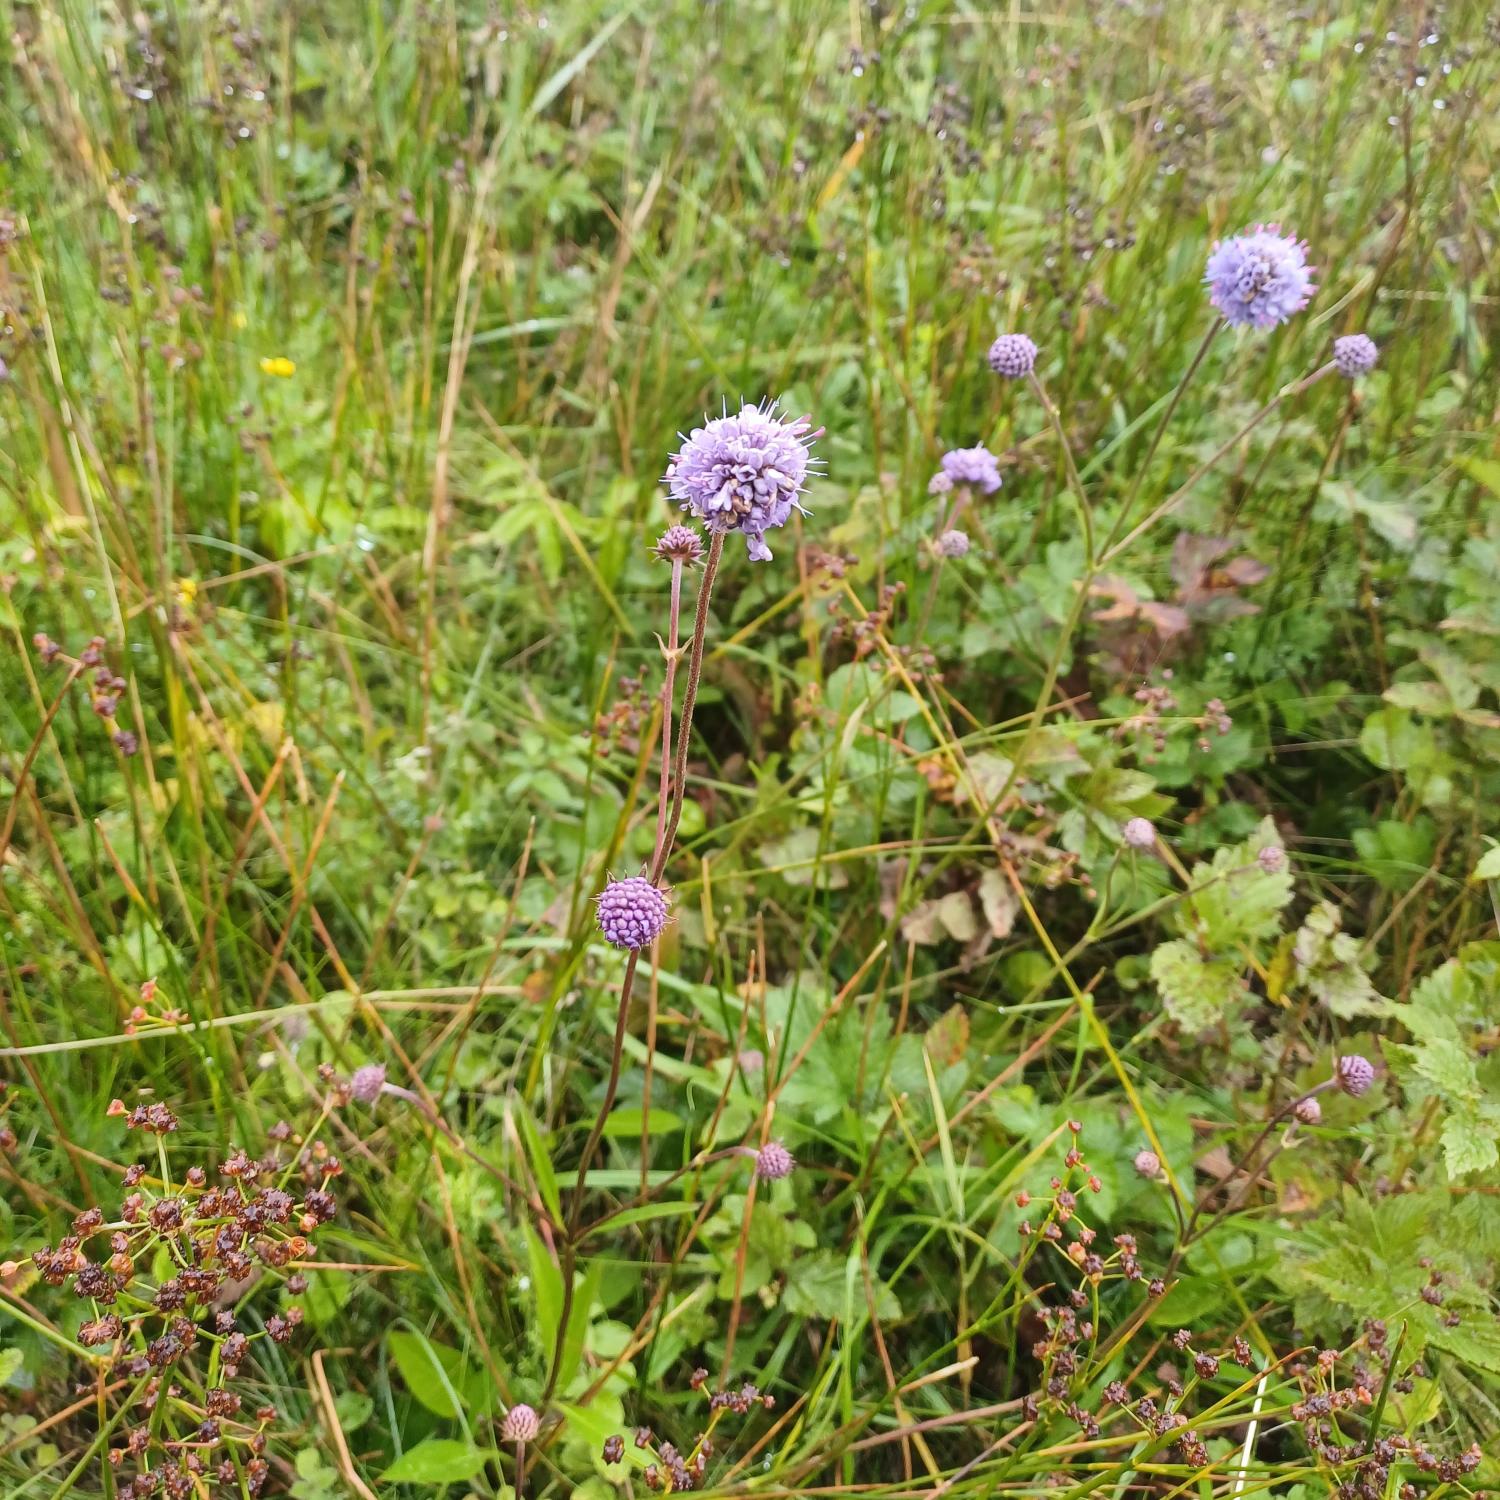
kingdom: Plantae
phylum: Tracheophyta
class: Magnoliopsida
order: Dipsacales
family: Caprifoliaceae
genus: Succisa
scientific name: Succisa pratensis
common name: Djævelsbid
